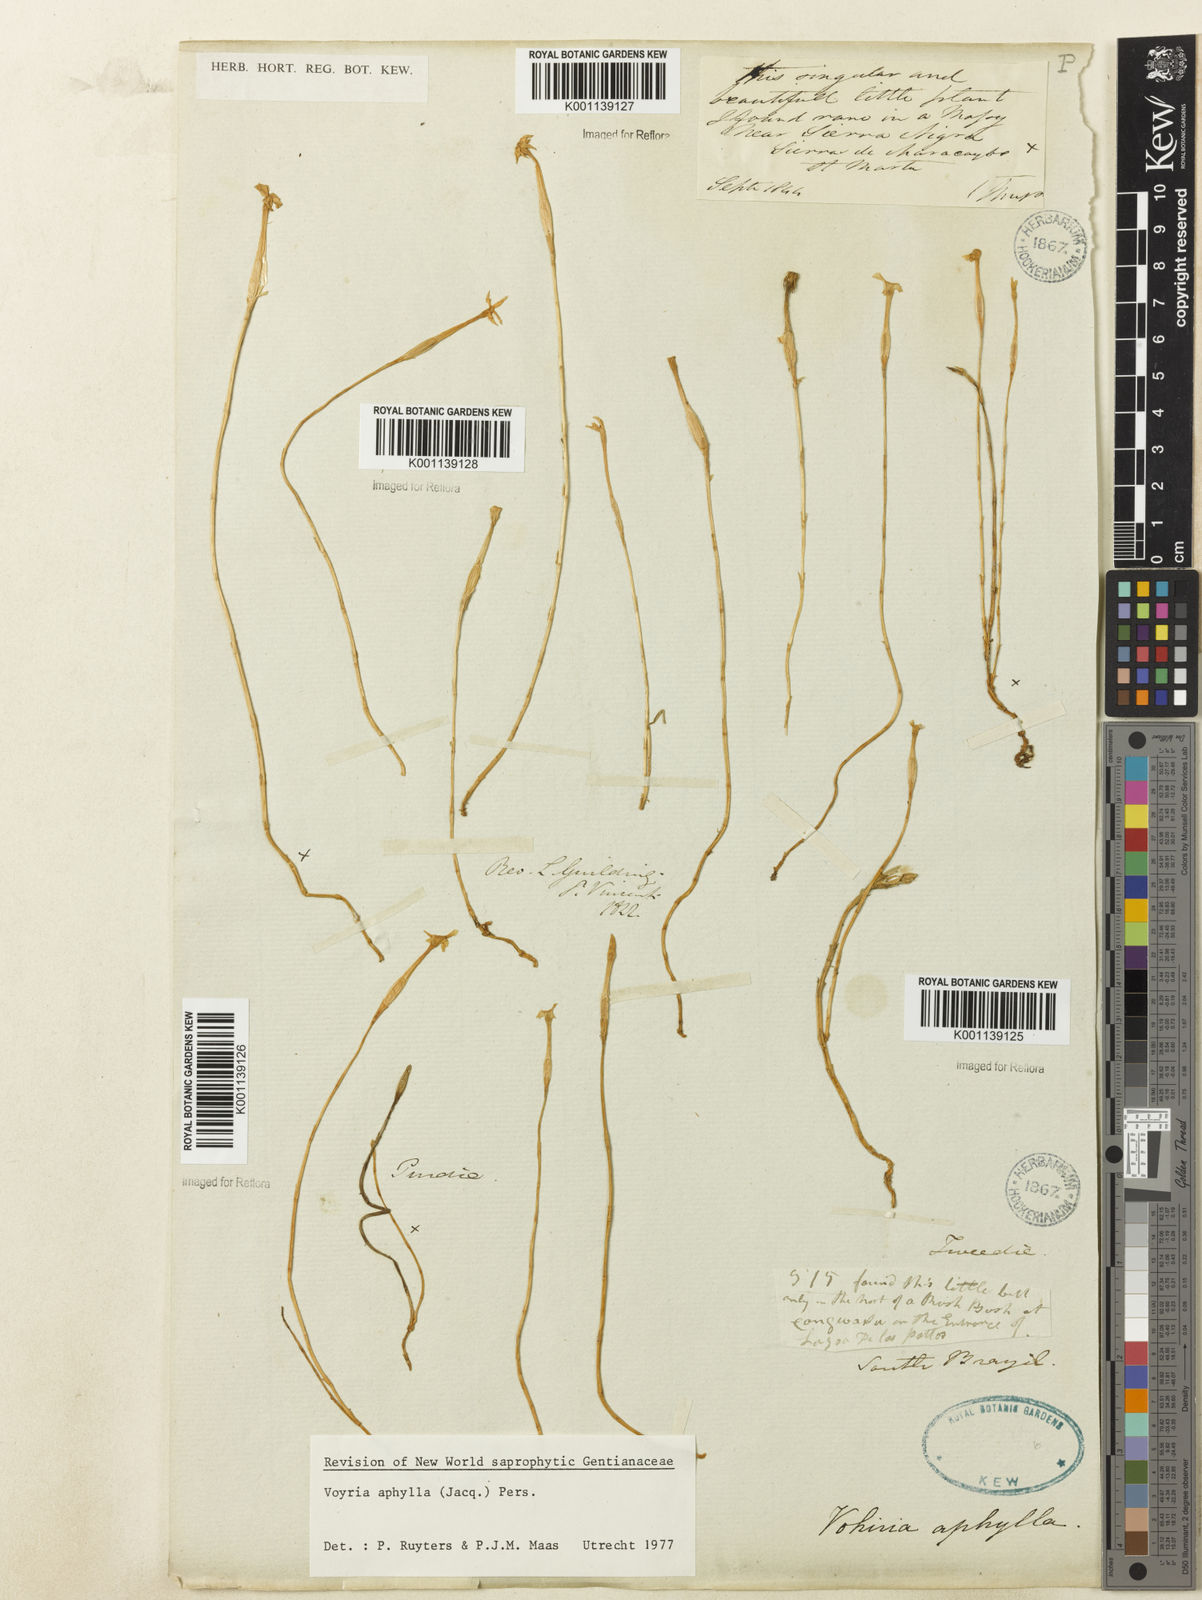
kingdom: Plantae
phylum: Tracheophyta
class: Magnoliopsida
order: Gentianales
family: Gentianaceae
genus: Voyria
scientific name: Voyria aphylla
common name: Leafless ghost plant
